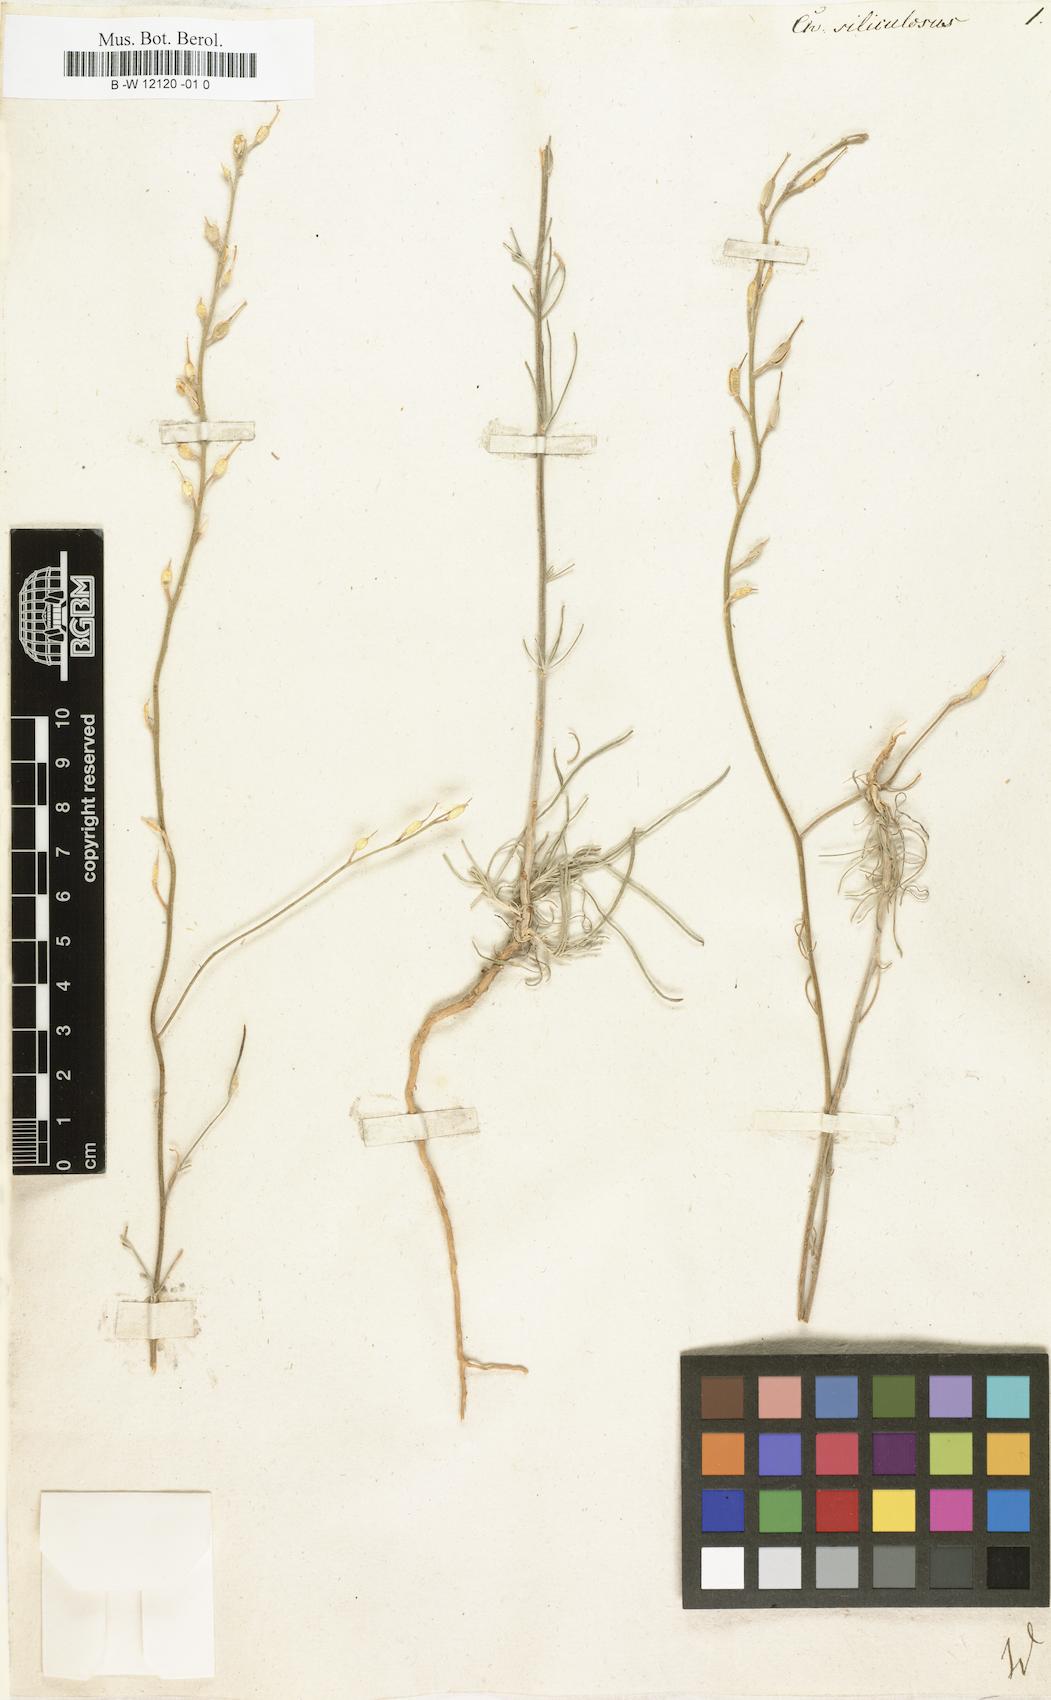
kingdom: Plantae
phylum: Tracheophyta
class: Magnoliopsida
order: Brassicales
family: Brassicaceae
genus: Erysimum
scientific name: Erysimum siliculosum
